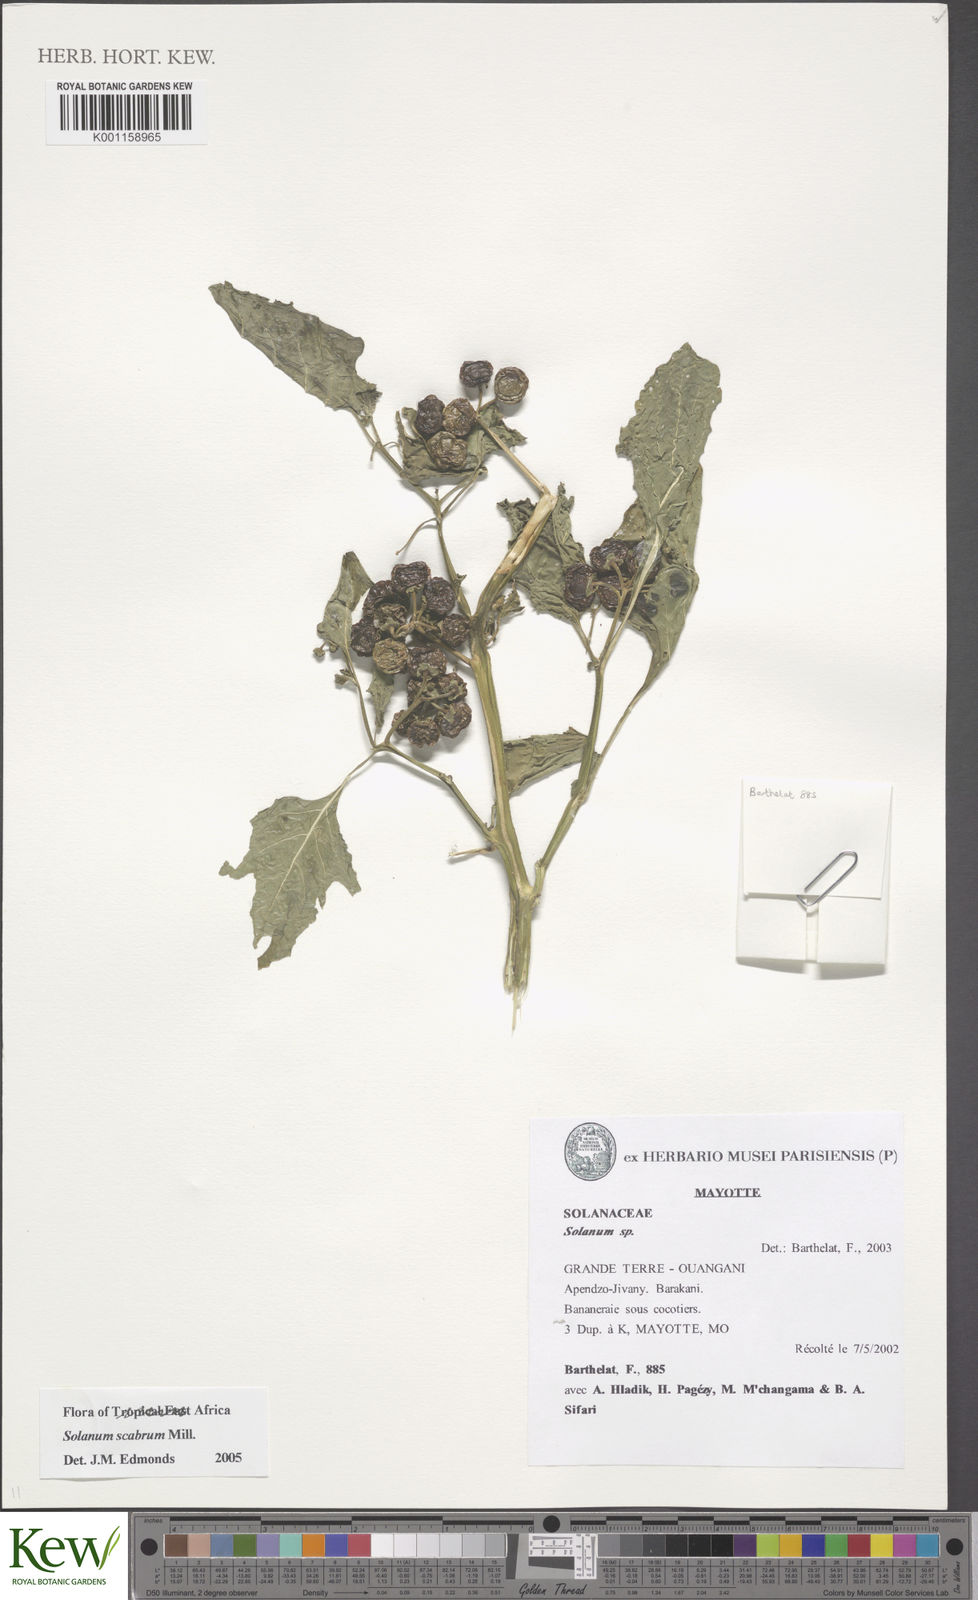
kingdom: Plantae
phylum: Tracheophyta
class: Magnoliopsida
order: Solanales
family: Solanaceae
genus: Solanum
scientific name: Solanum scabrum
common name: Garden-huckleberry
